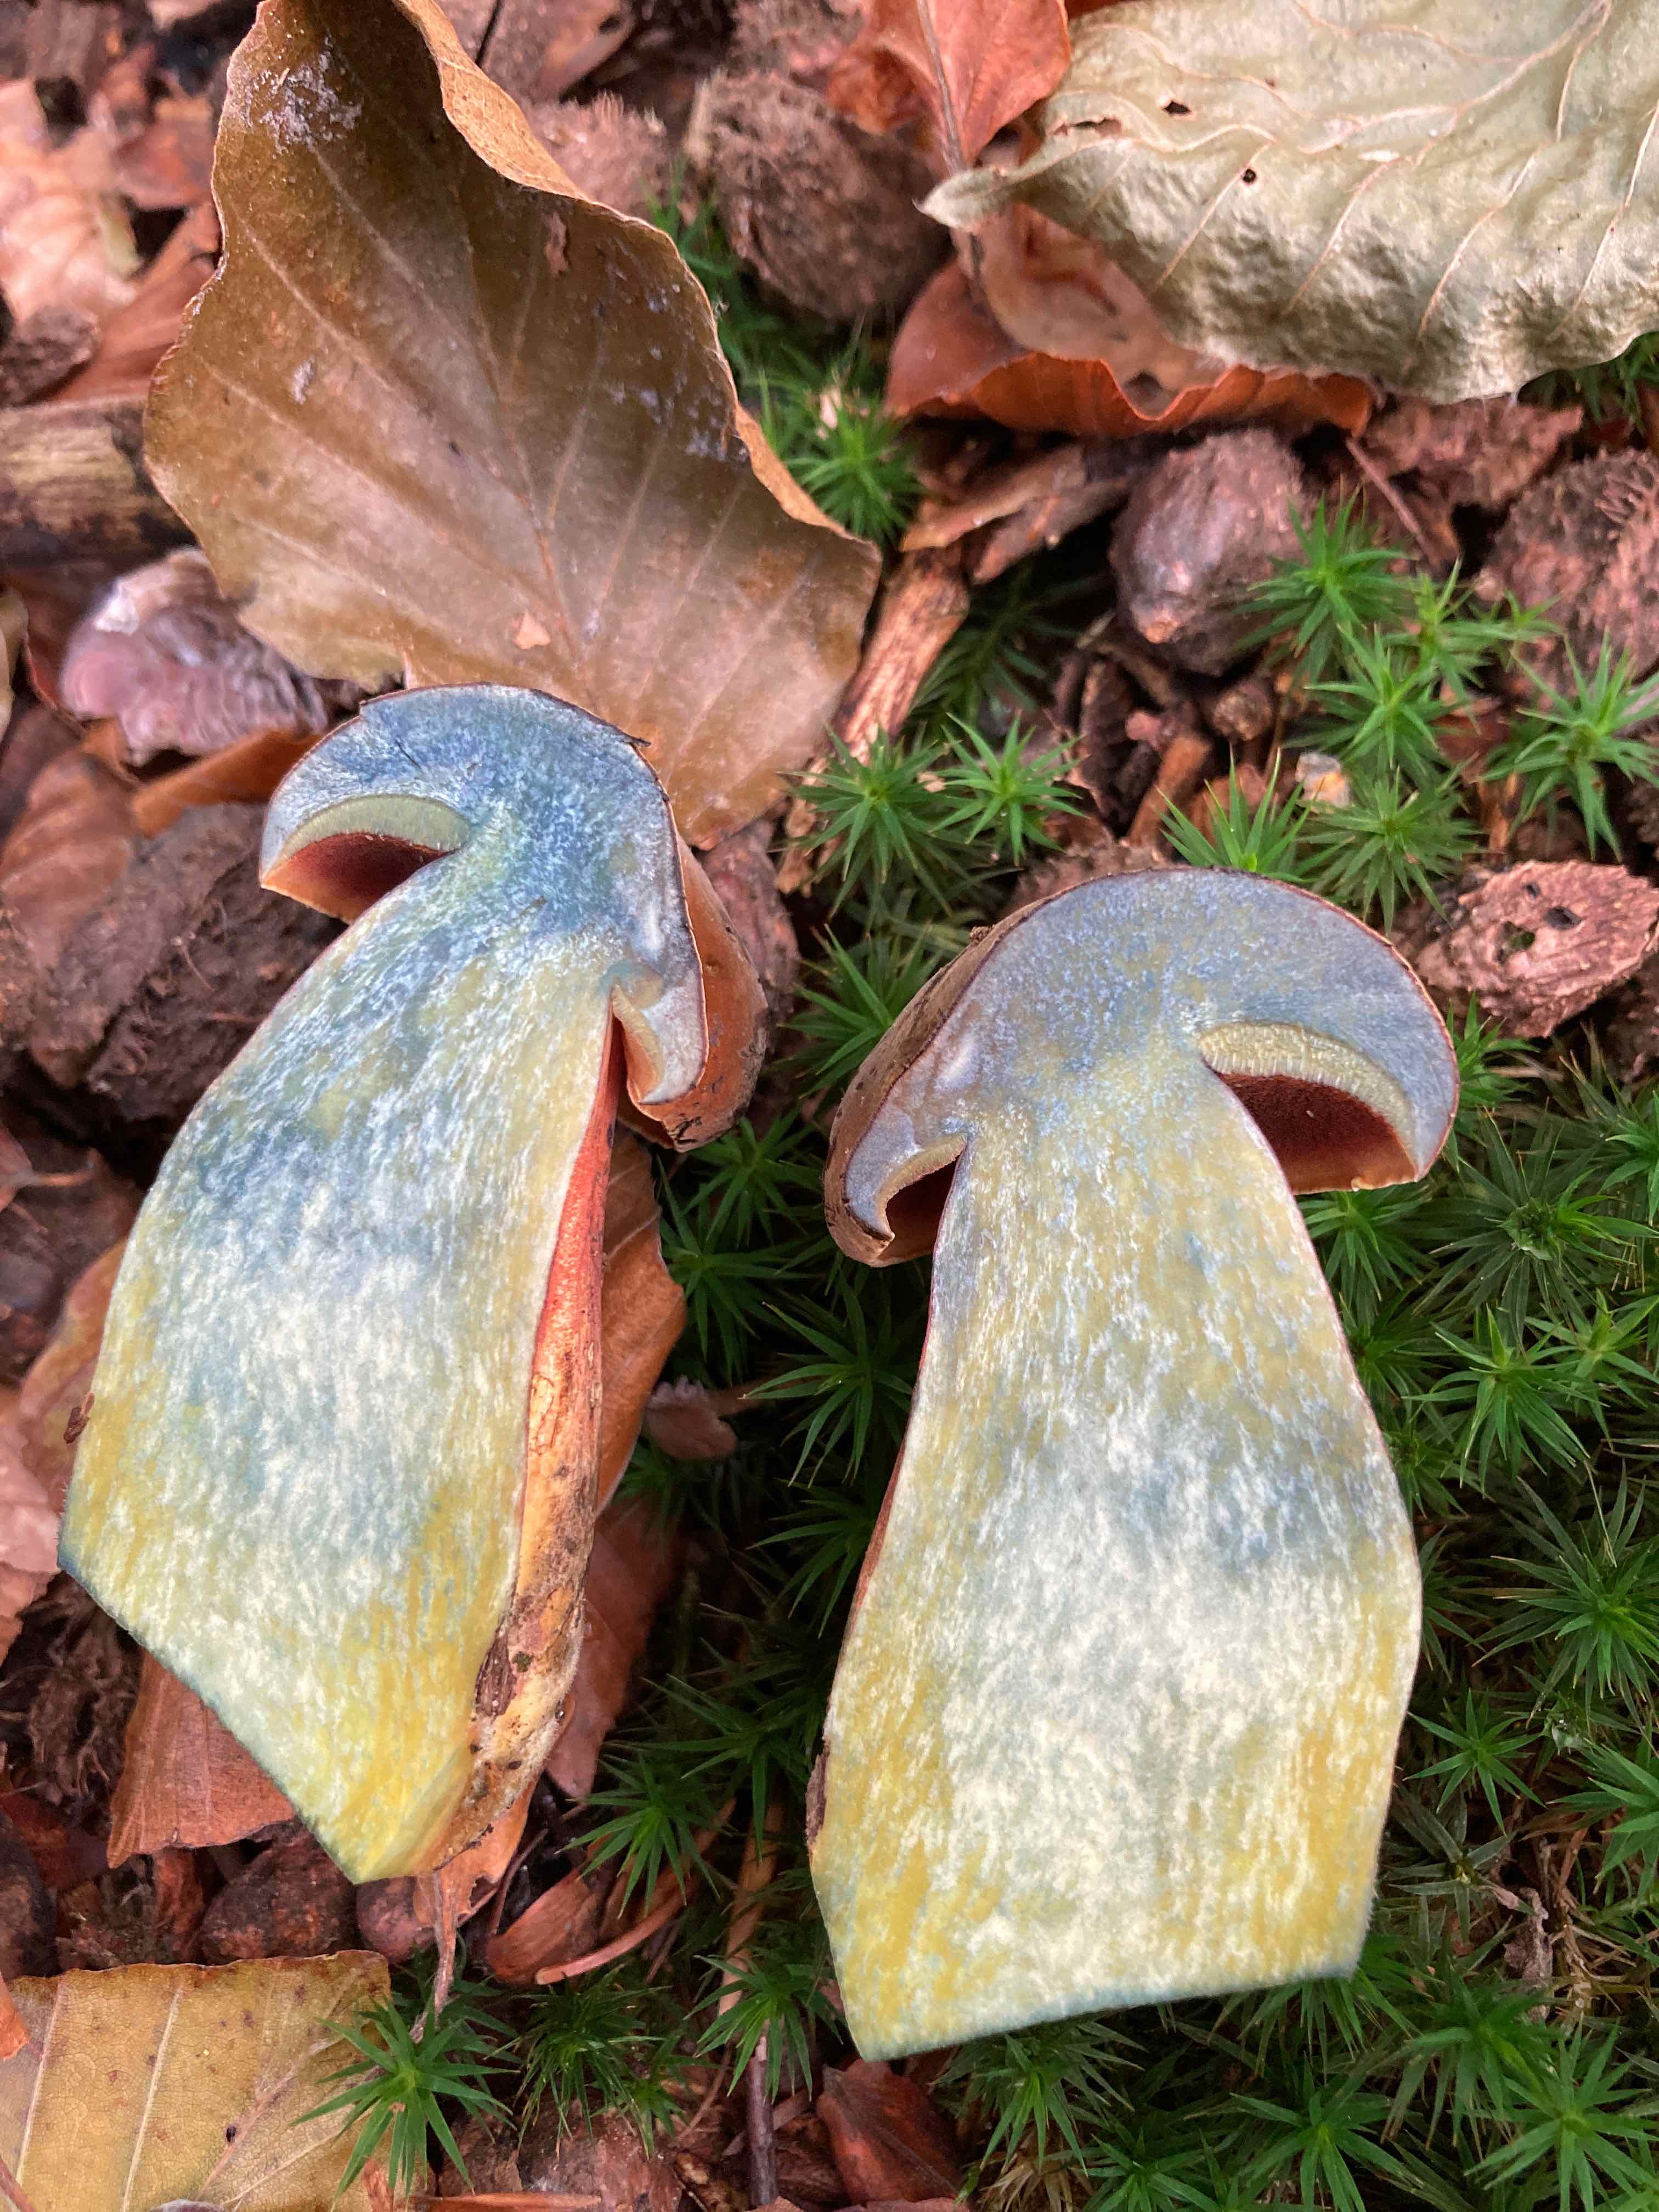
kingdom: Fungi
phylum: Basidiomycota
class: Agaricomycetes
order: Boletales
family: Boletaceae
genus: Neoboletus
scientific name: Neoboletus erythropus
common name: punktstokket indigorørhat
